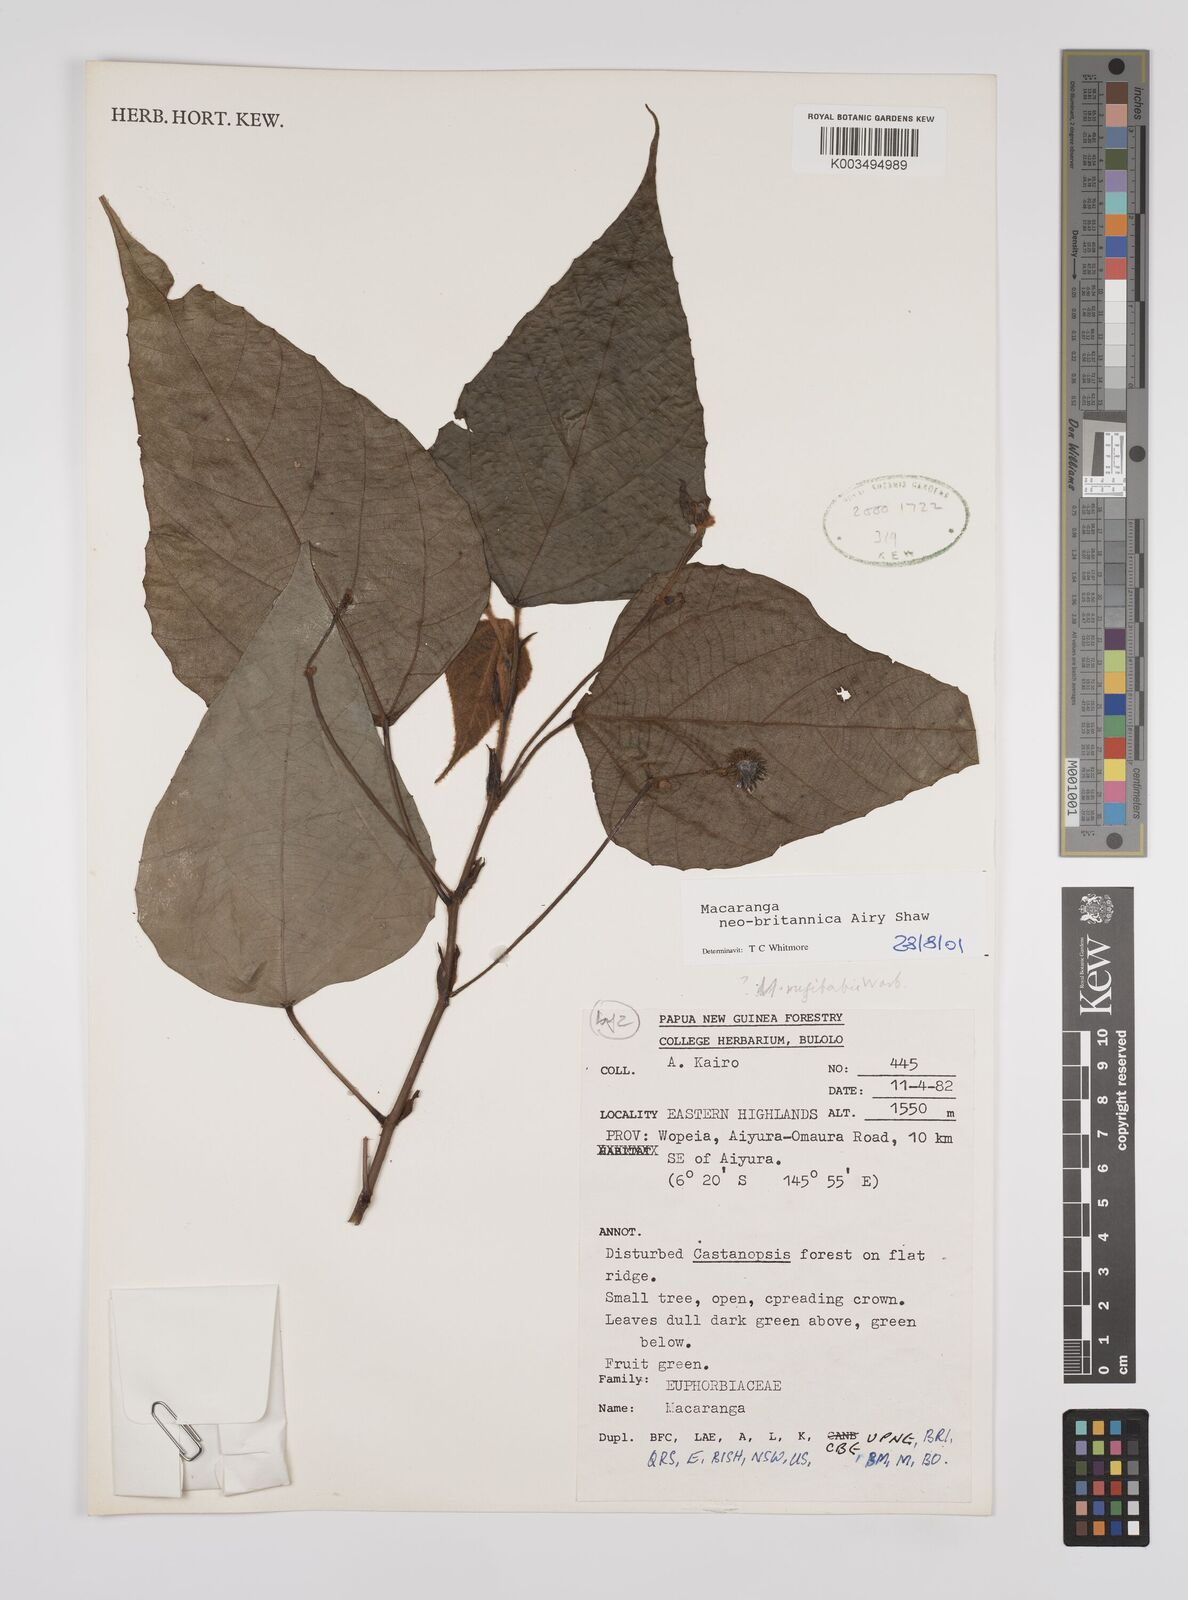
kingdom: Plantae
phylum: Tracheophyta
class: Magnoliopsida
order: Malpighiales
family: Euphorbiaceae
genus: Macaranga
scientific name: Macaranga neobritannica
